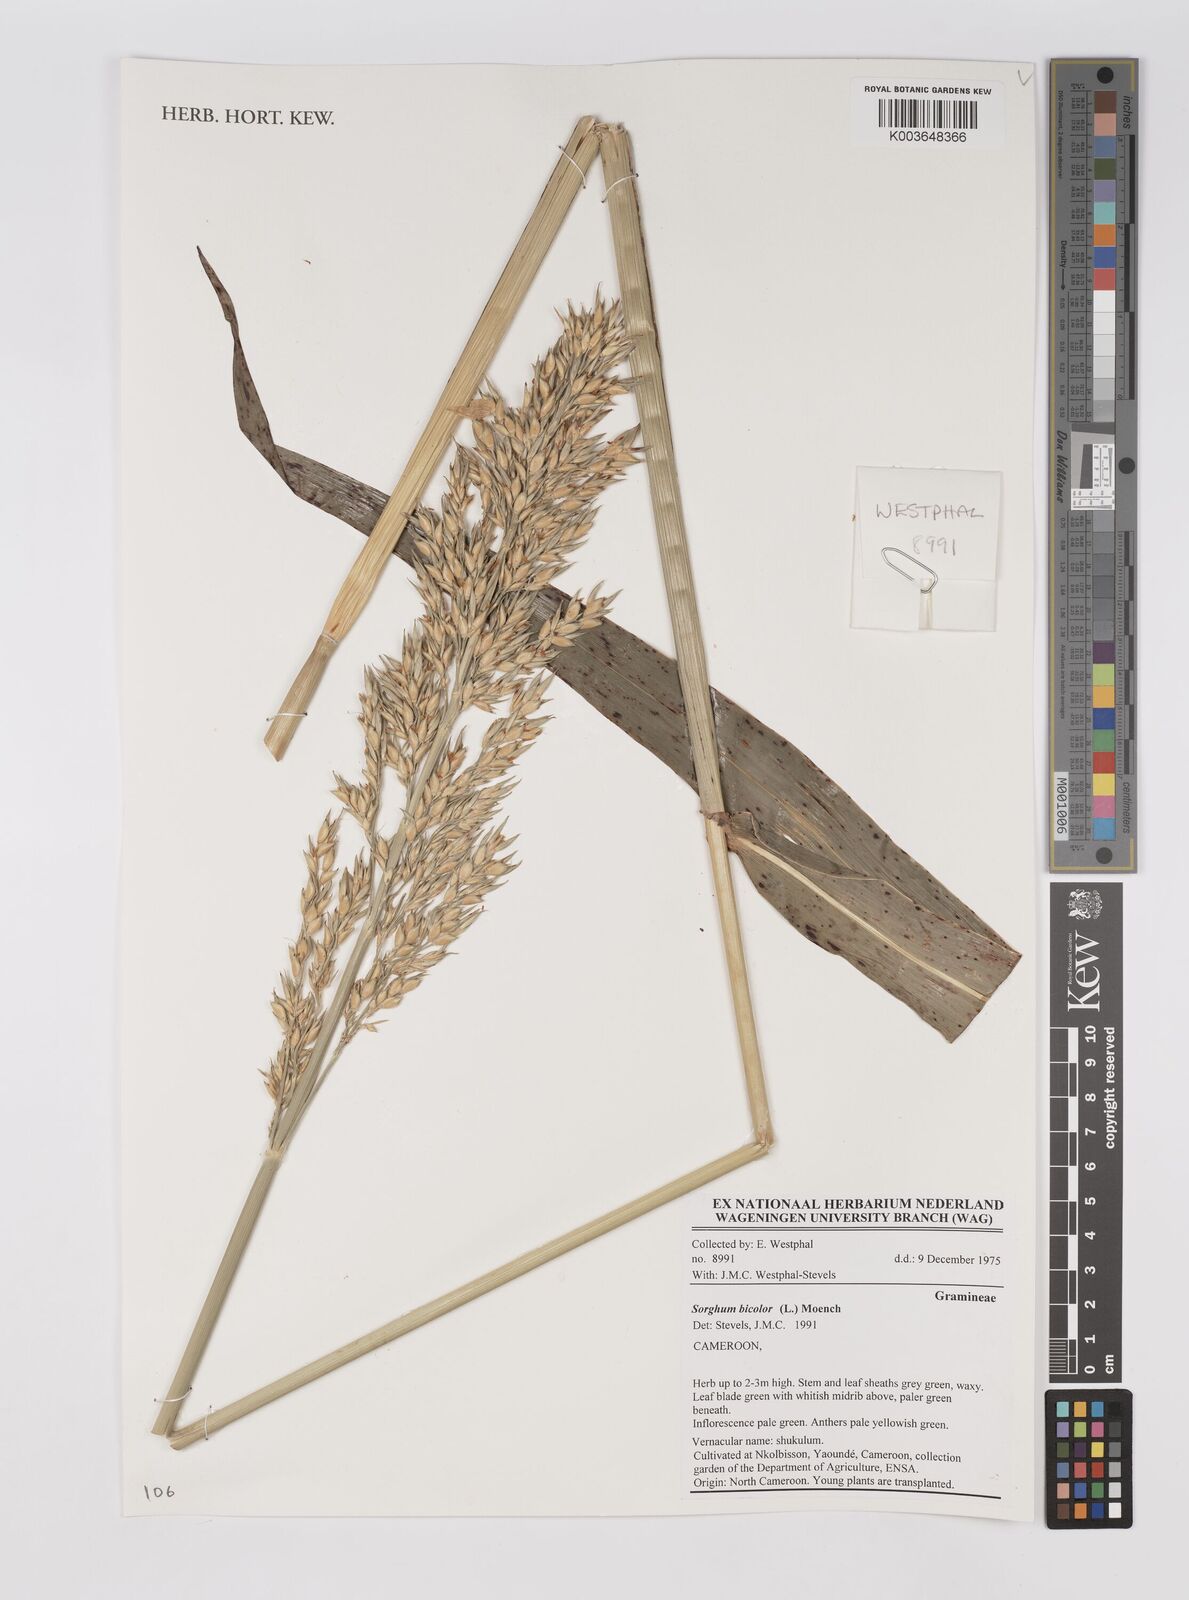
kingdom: Plantae
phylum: Tracheophyta
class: Liliopsida
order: Poales
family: Poaceae
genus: Sorghum
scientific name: Sorghum bicolor
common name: Sorghum
